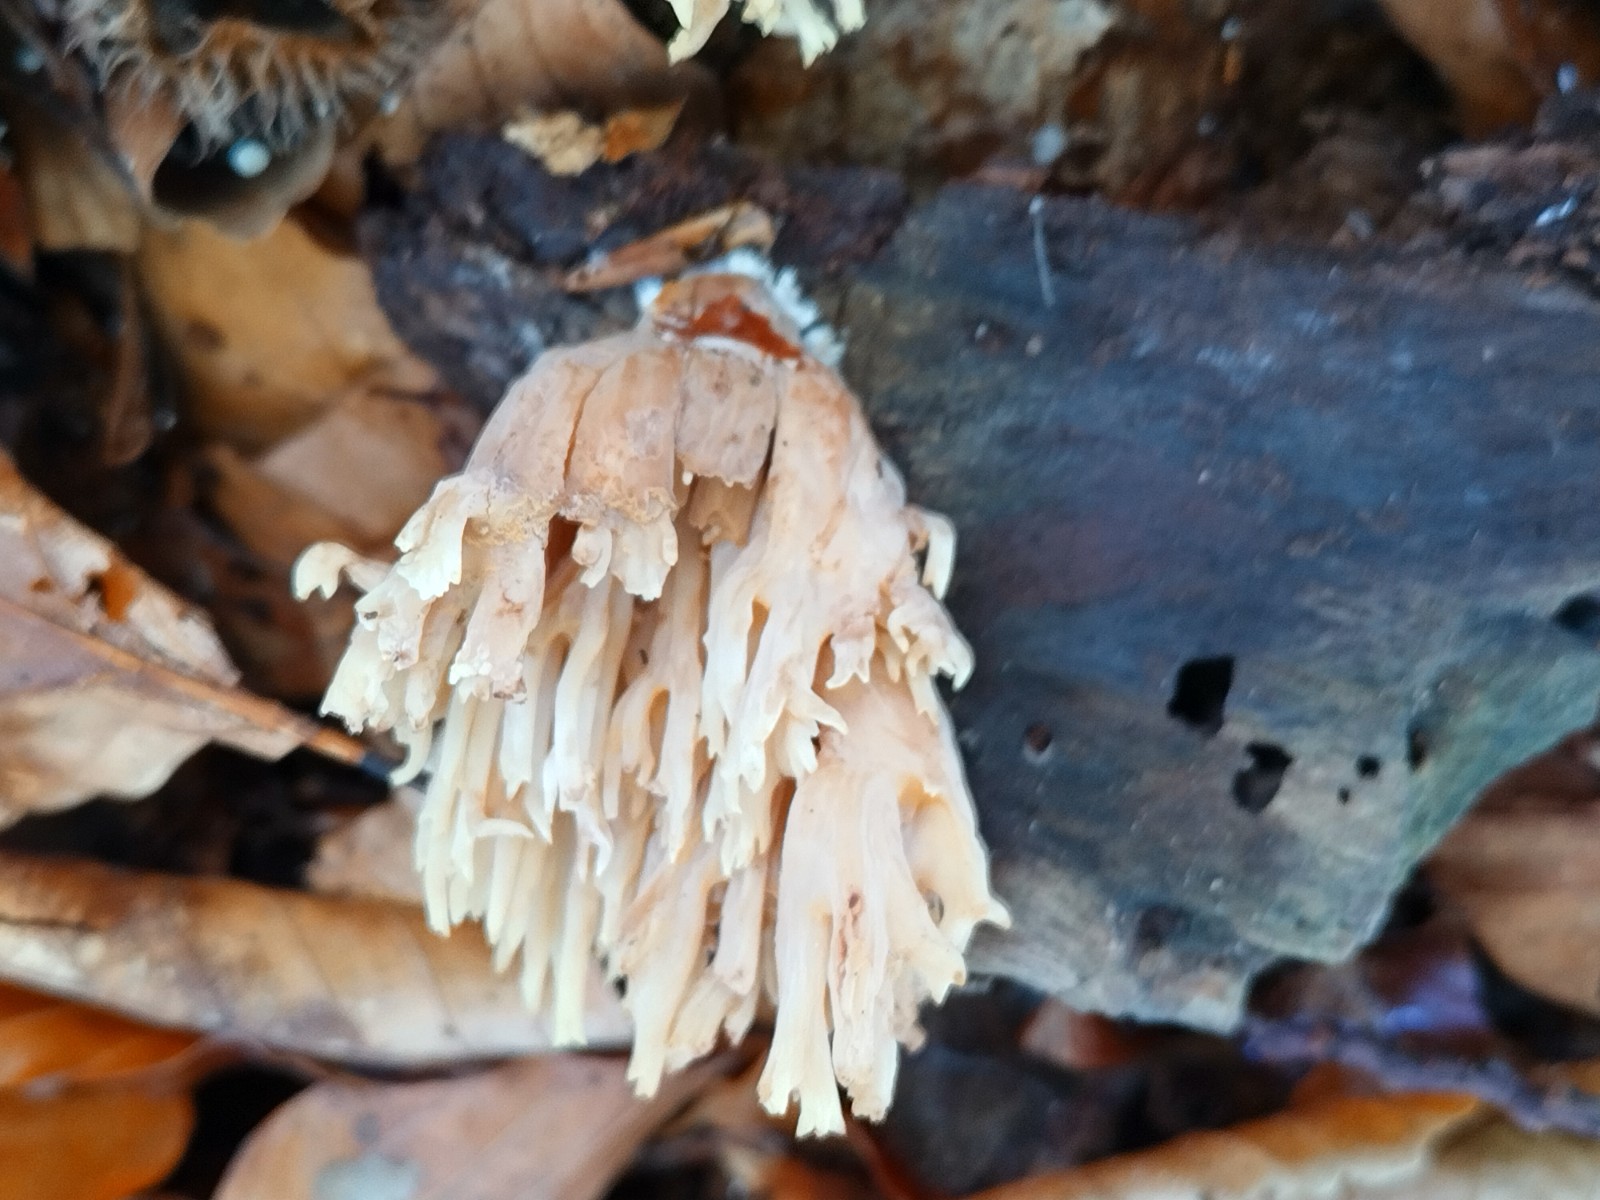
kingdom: Fungi
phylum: Basidiomycota
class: Agaricomycetes
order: Gomphales
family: Gomphaceae
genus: Ramaria
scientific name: Ramaria stricta
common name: rank koralsvamp
